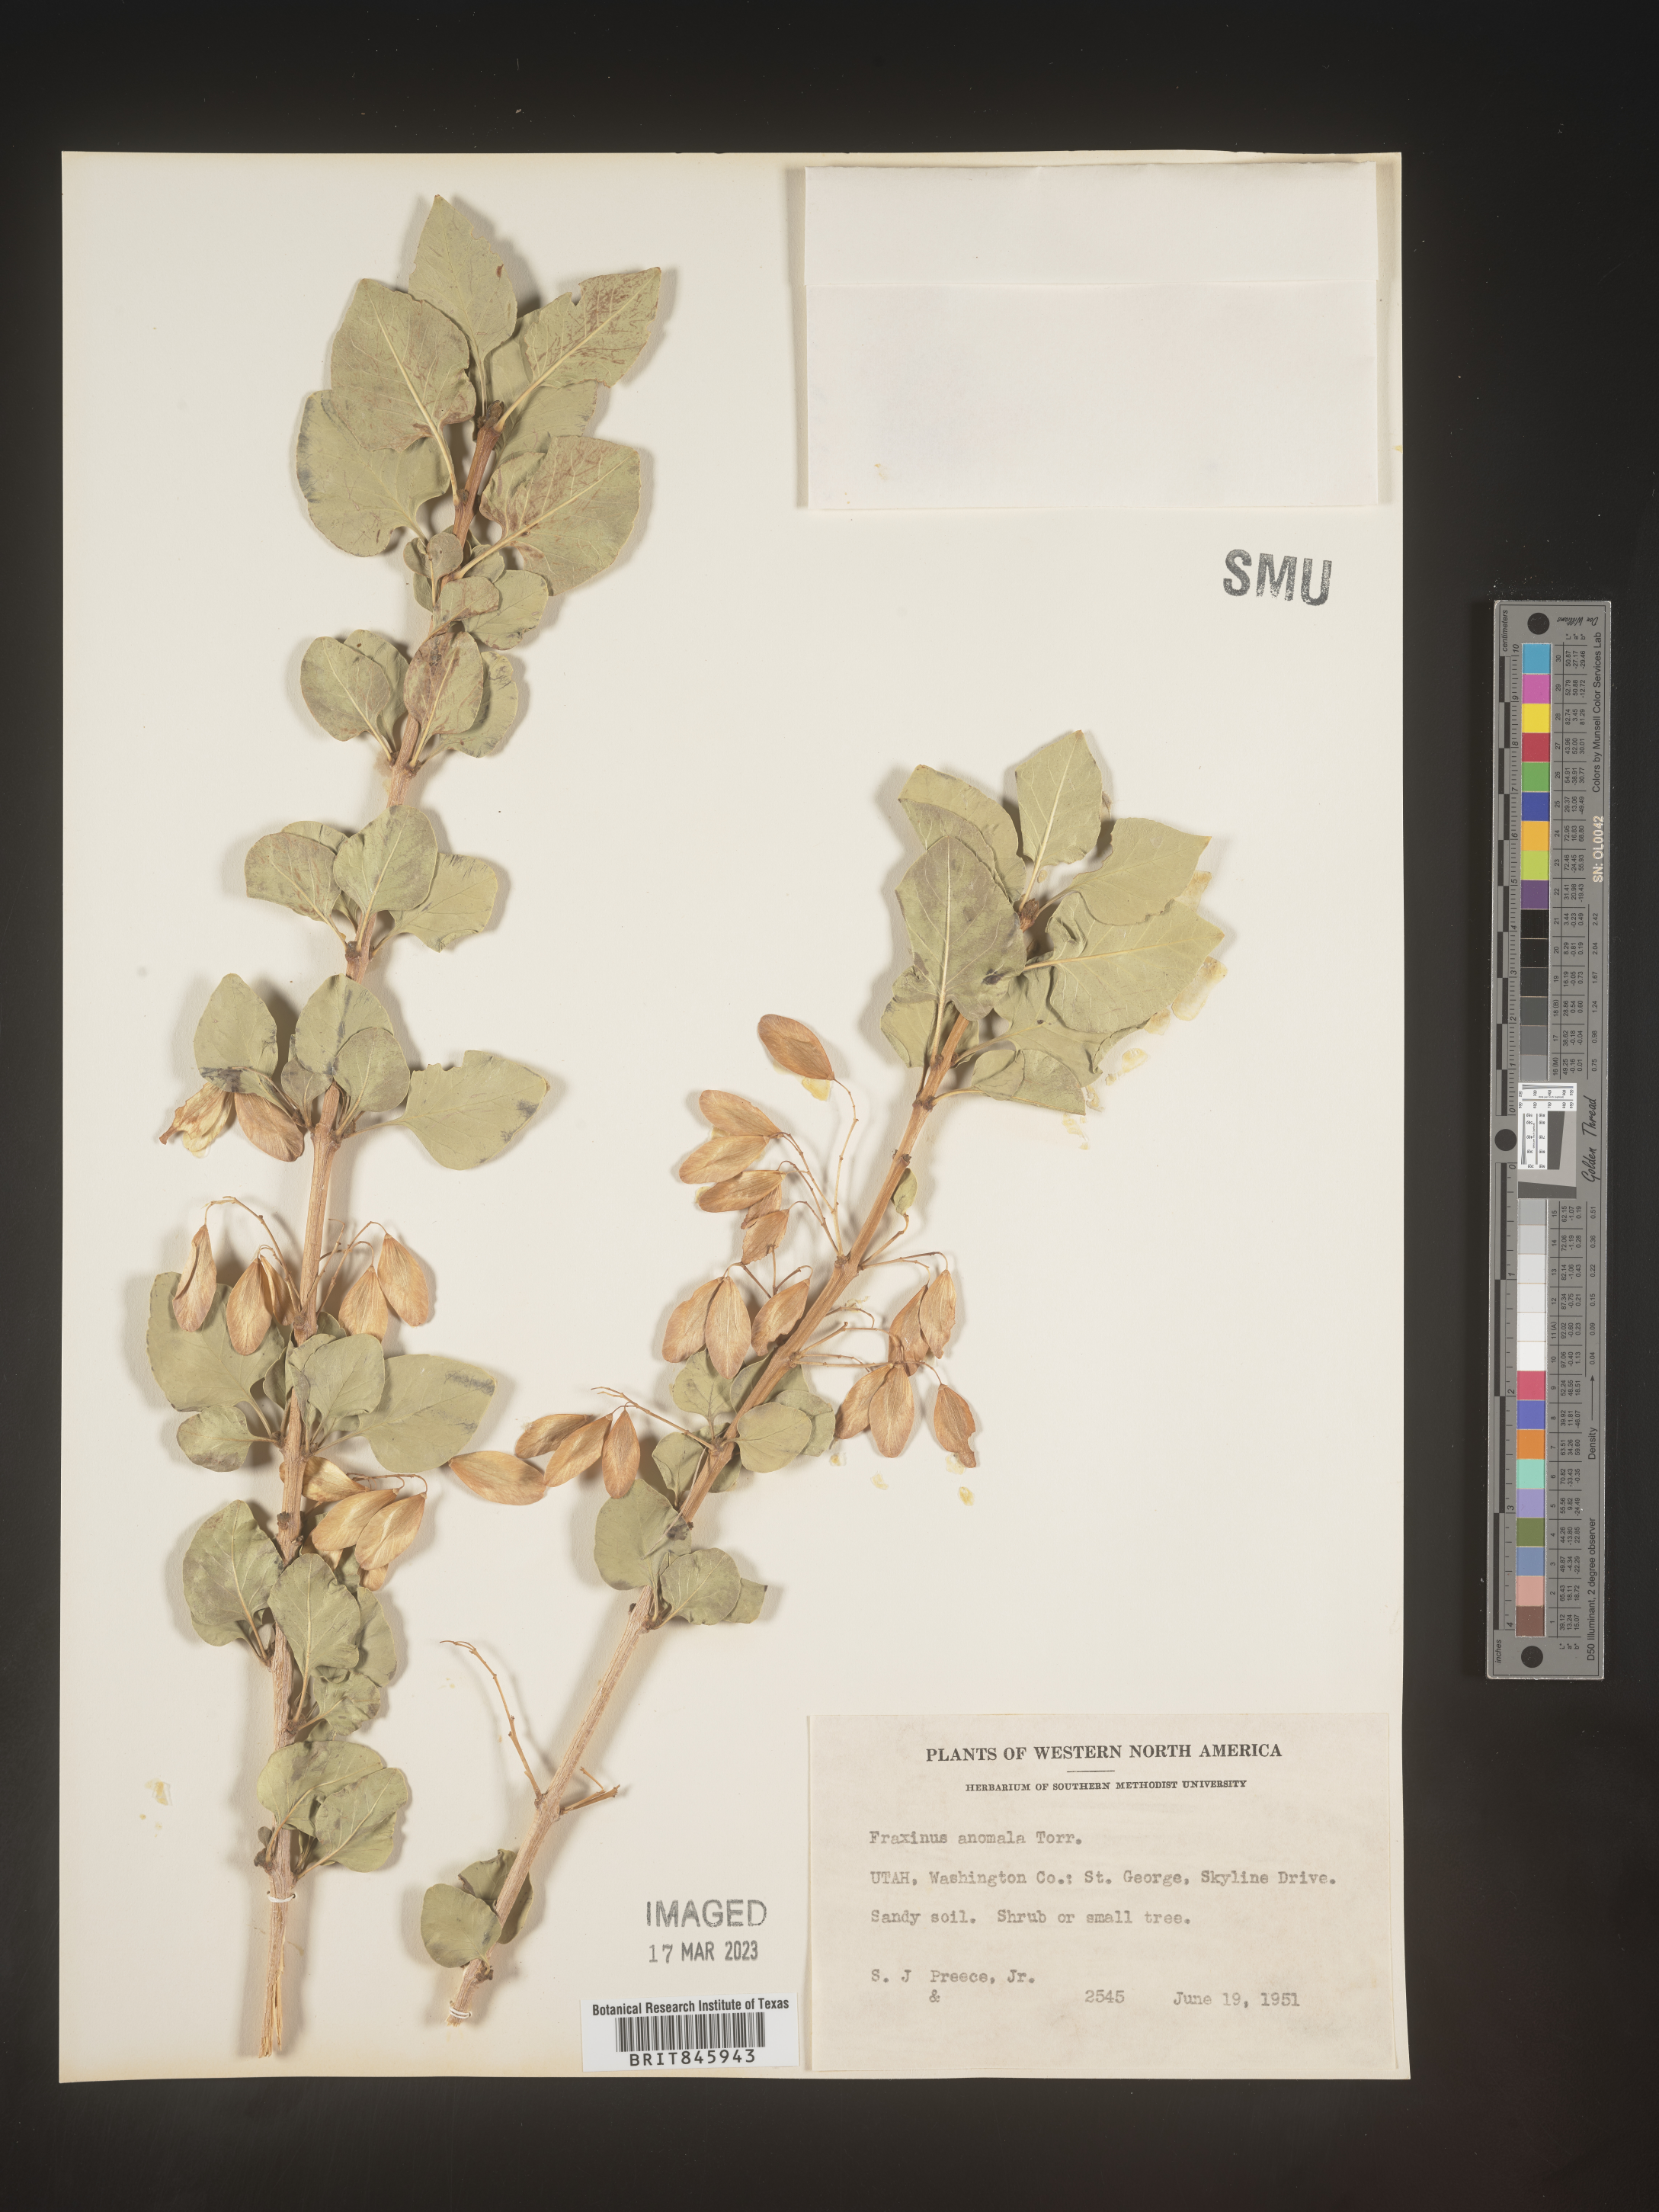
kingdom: Plantae
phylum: Tracheophyta
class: Magnoliopsida
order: Lamiales
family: Oleaceae
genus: Fraxinus
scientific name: Fraxinus anomala
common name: Utah ash
